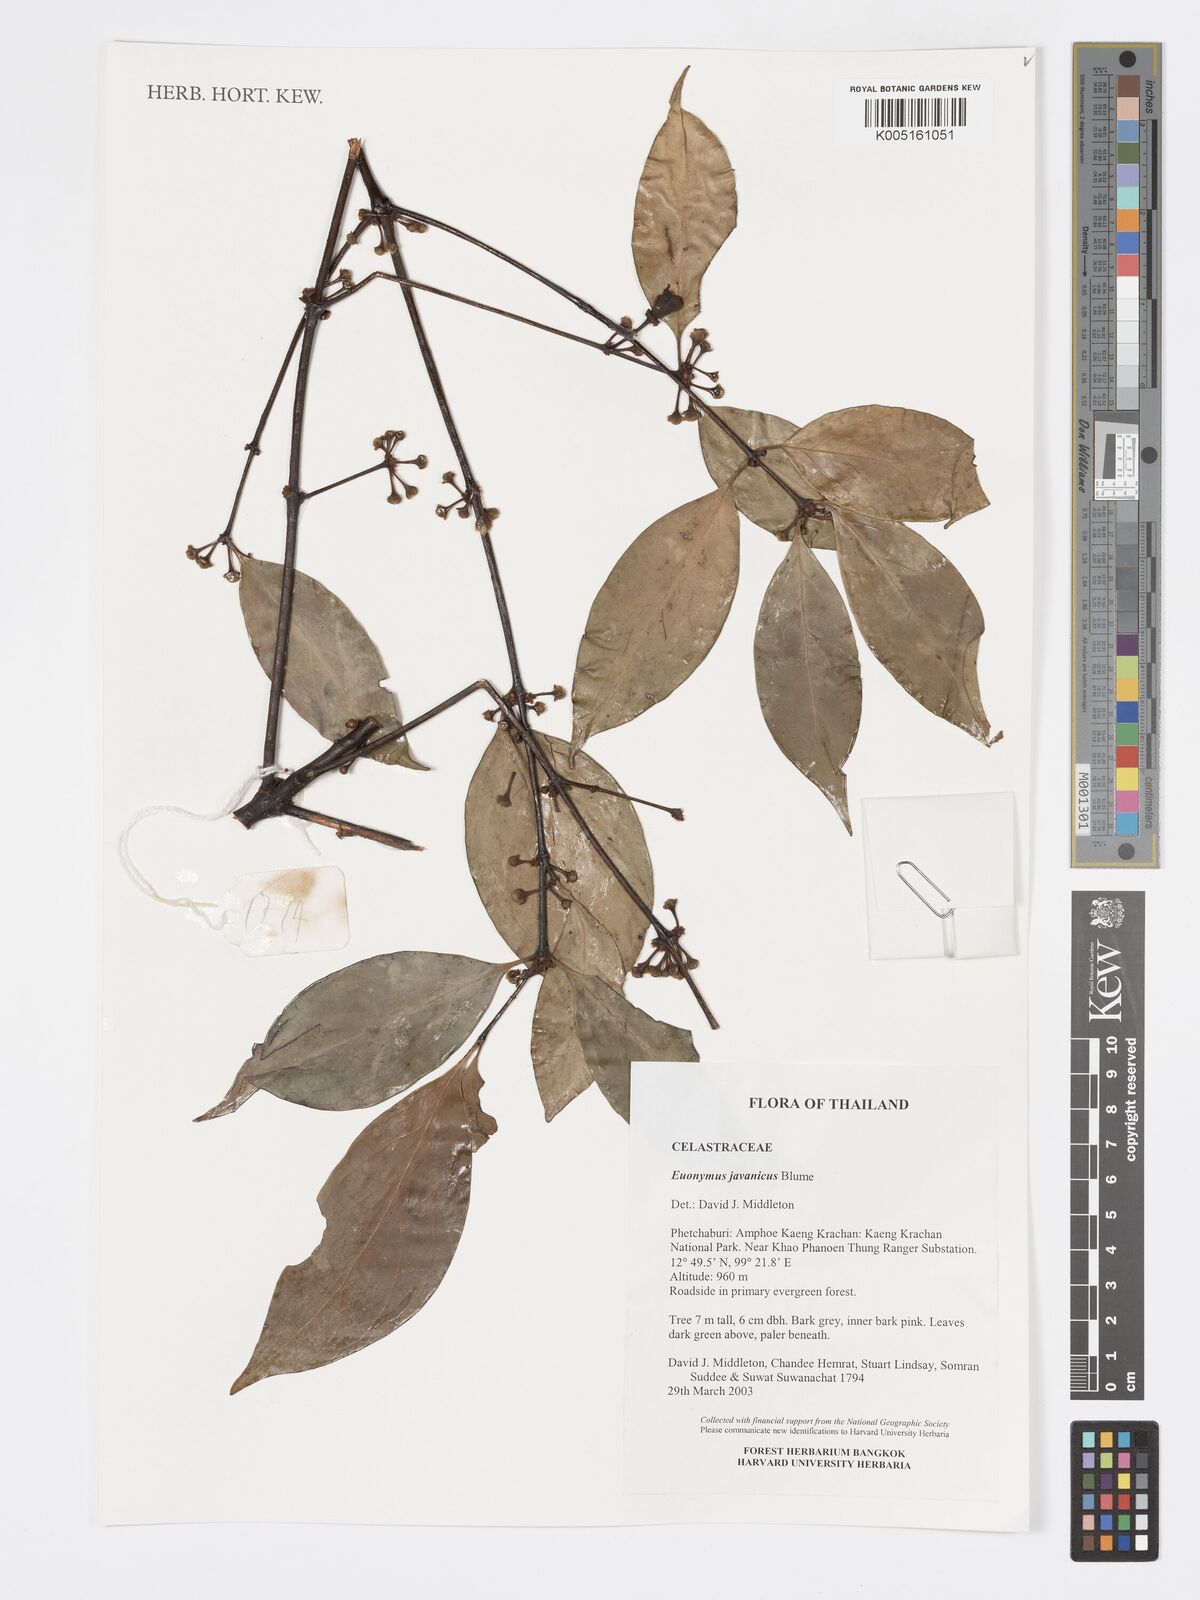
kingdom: Plantae
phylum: Tracheophyta
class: Magnoliopsida
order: Celastrales
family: Celastraceae
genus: Euonymus
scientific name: Euonymus indicus
